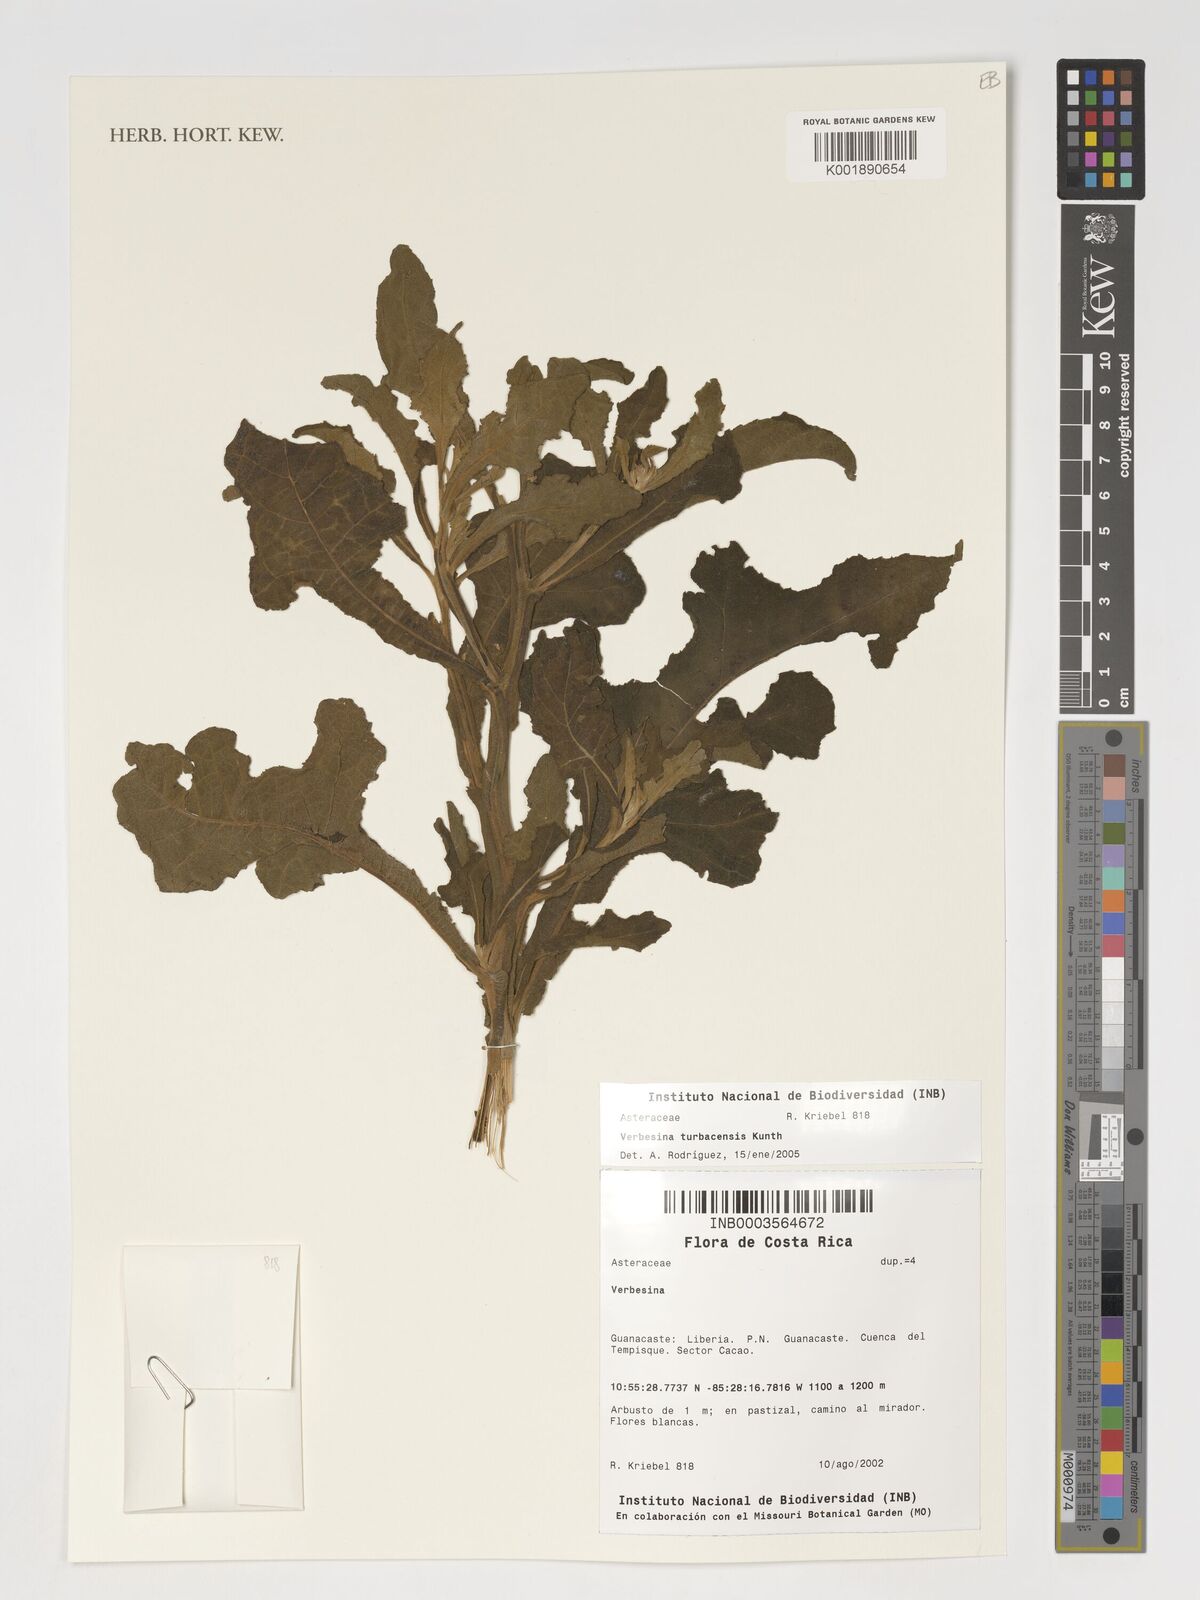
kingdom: Plantae
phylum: Tracheophyta
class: Magnoliopsida
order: Asterales
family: Asteraceae
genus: Verbesina
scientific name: Verbesina
